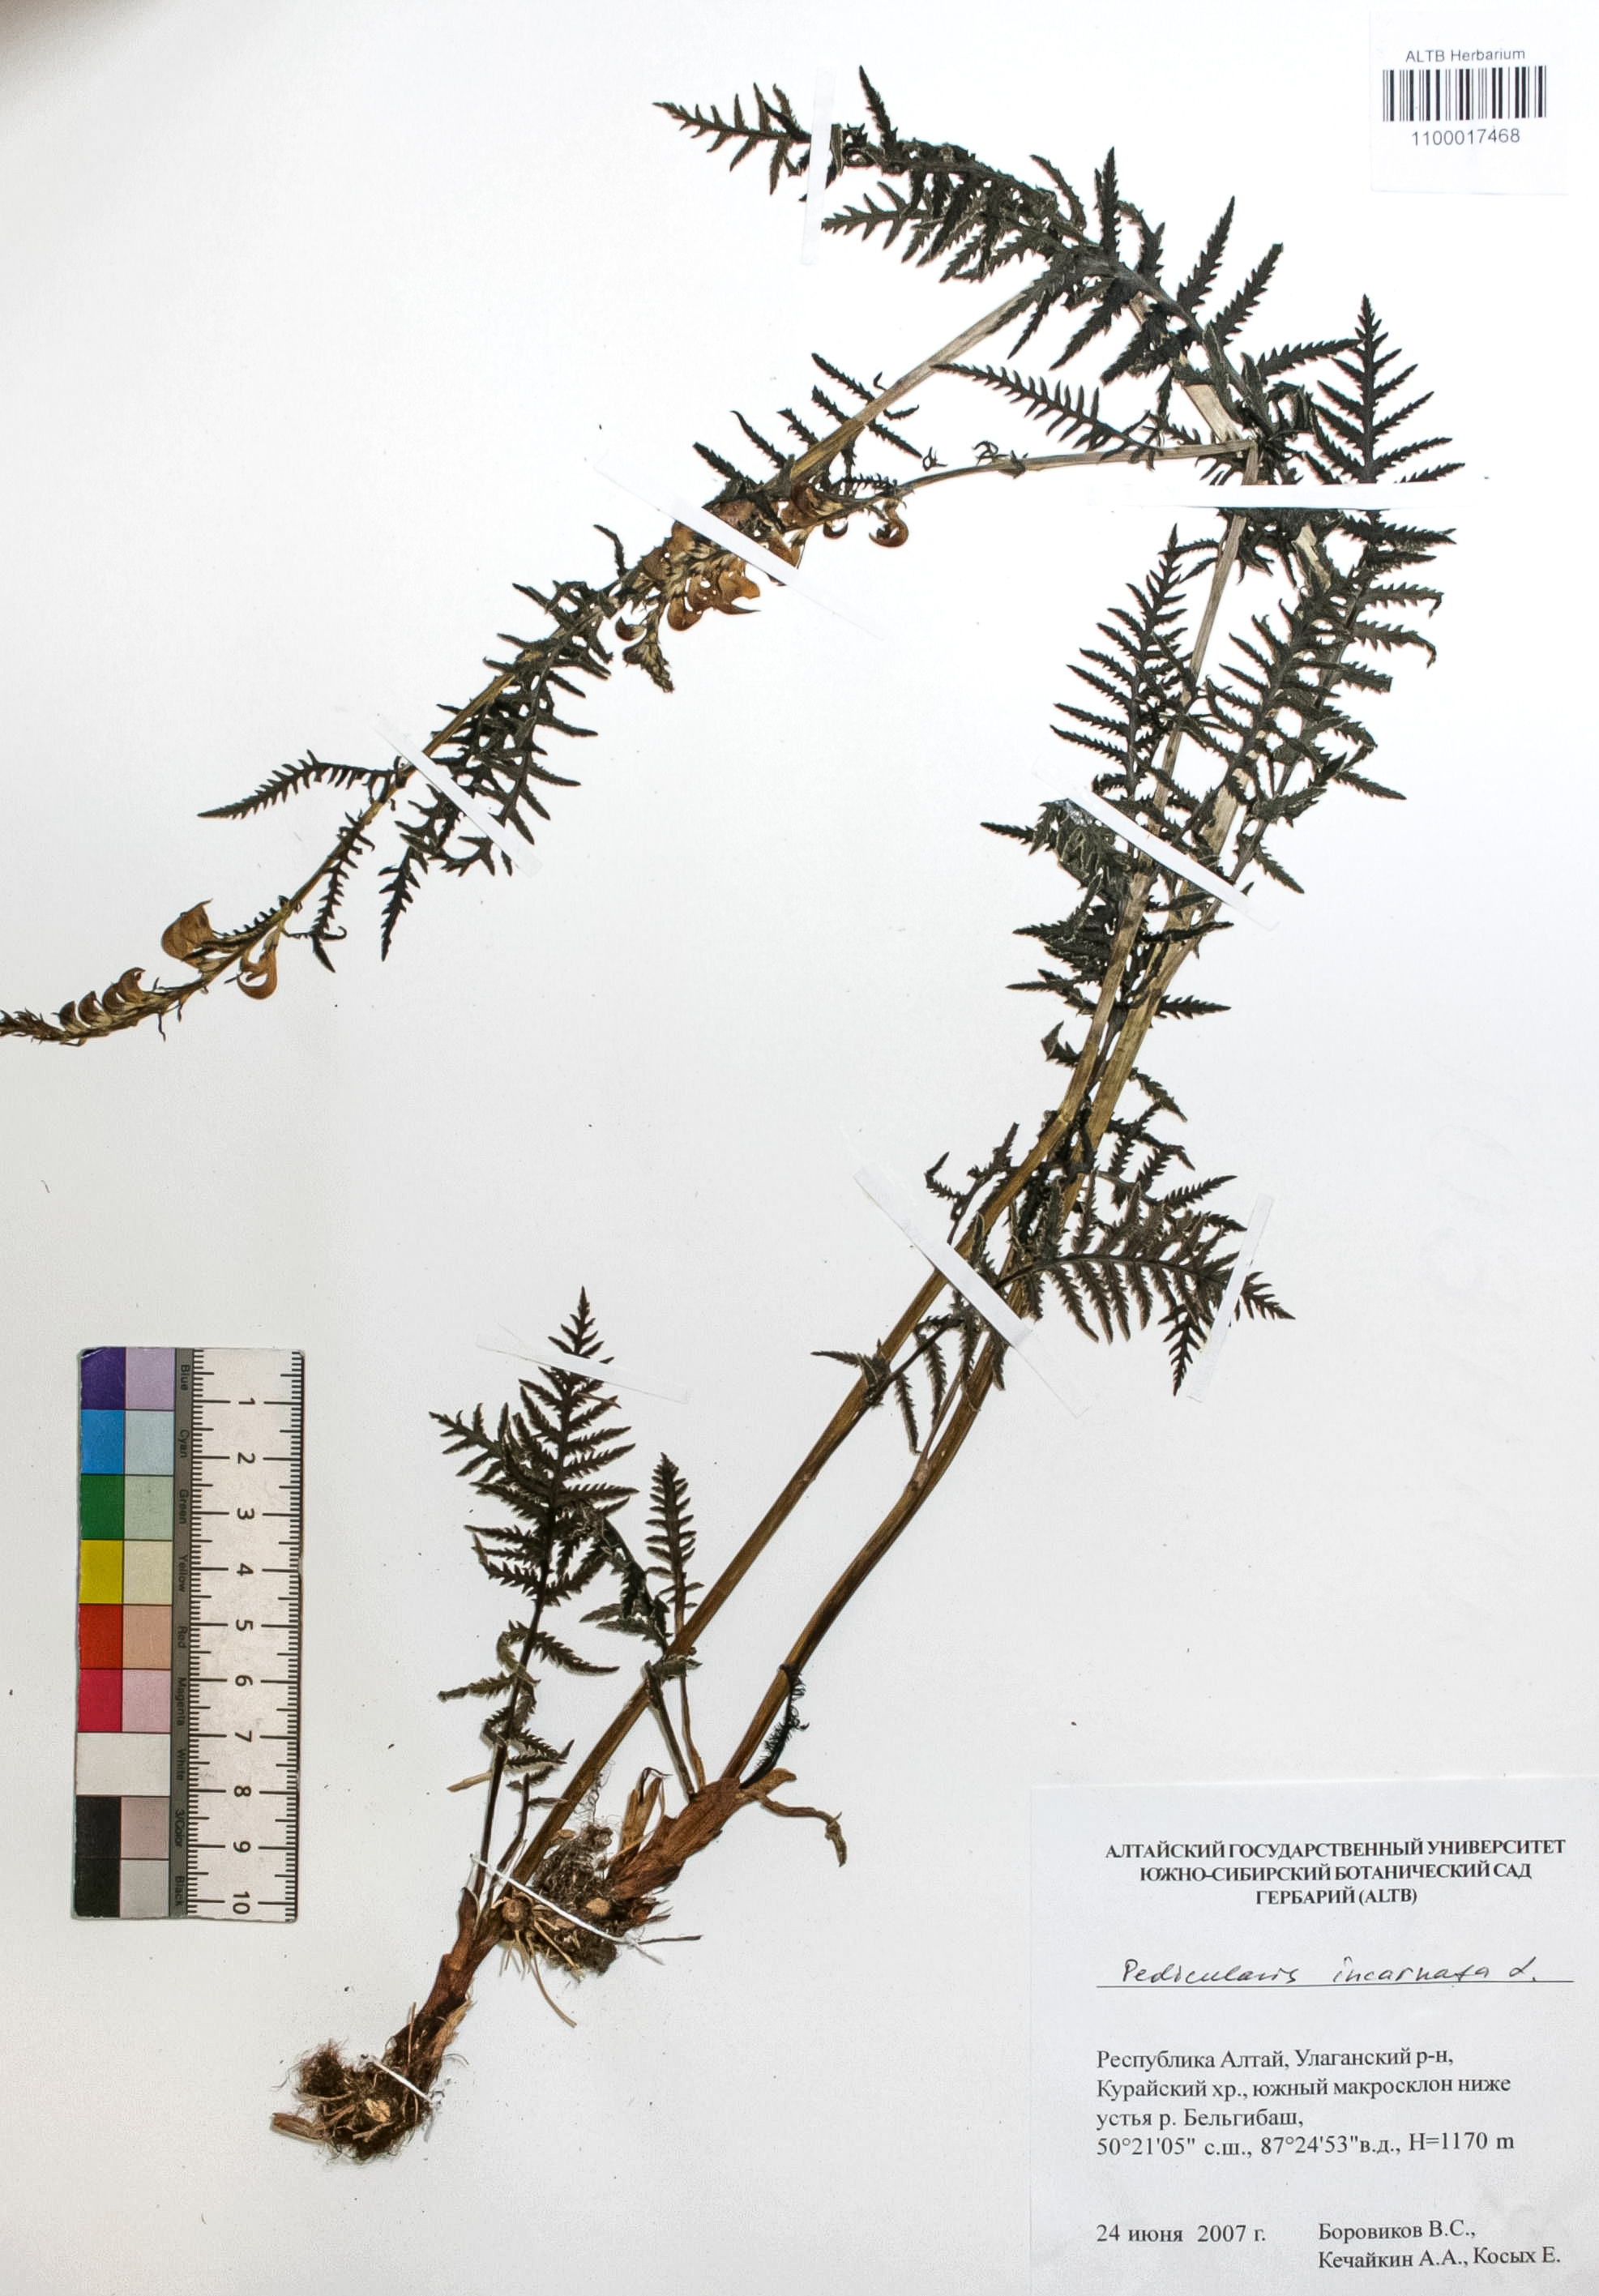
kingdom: Plantae
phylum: Tracheophyta
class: Magnoliopsida
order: Lamiales
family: Orobanchaceae
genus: Pedicularis
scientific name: Pedicularis incarnata
